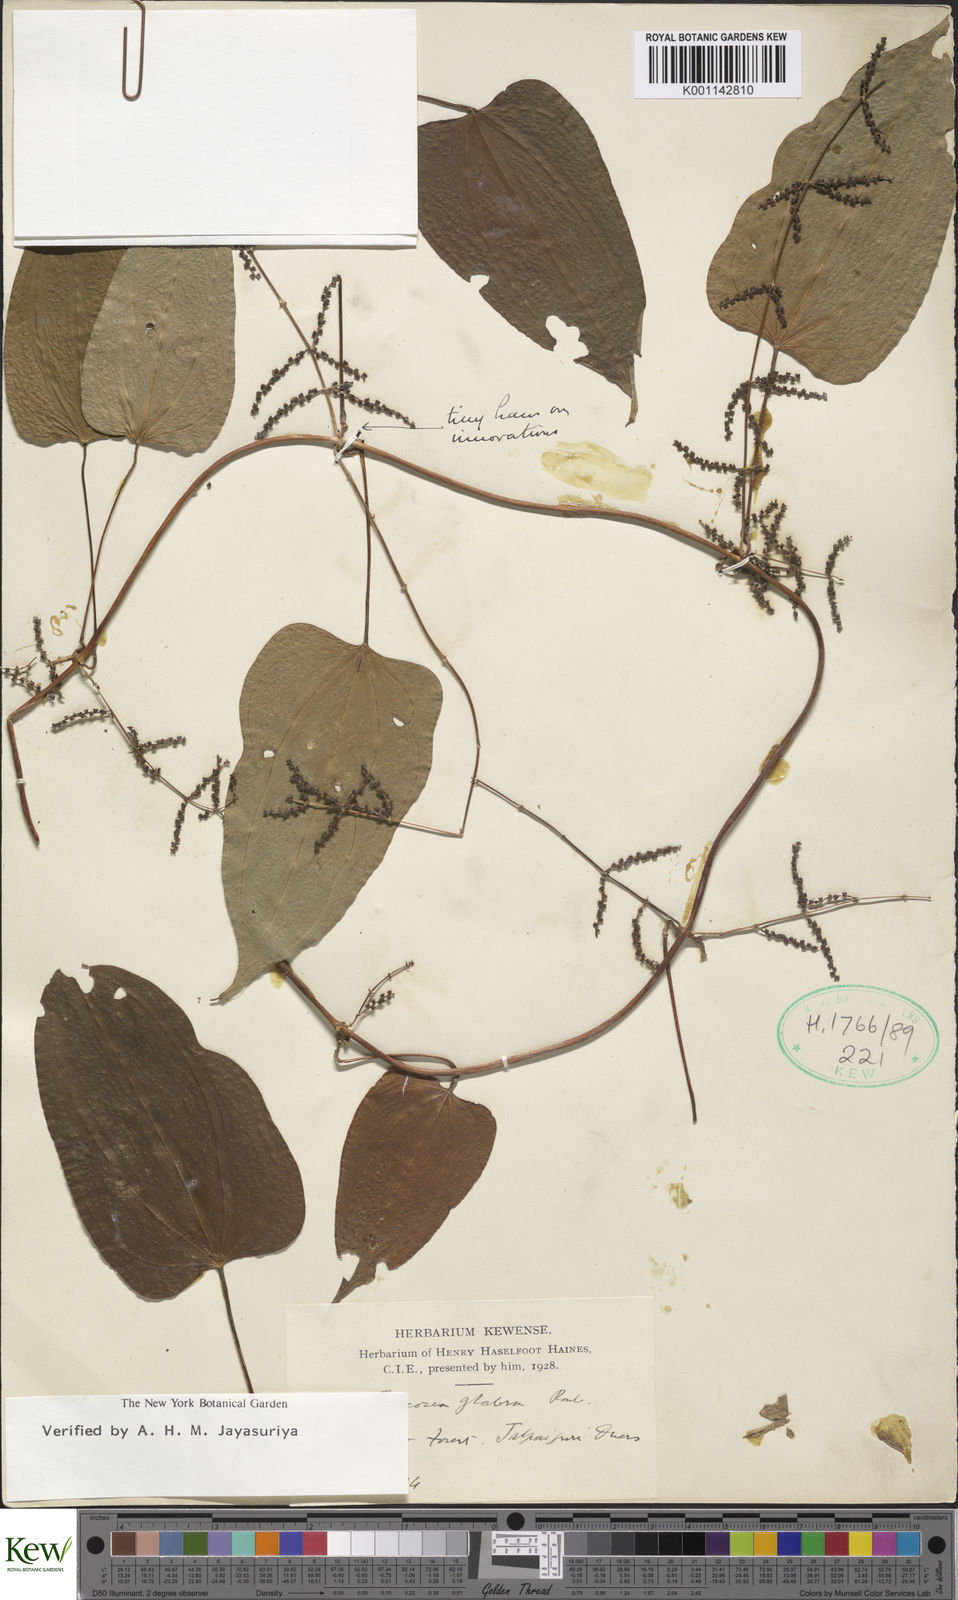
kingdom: Plantae
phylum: Tracheophyta
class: Liliopsida
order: Dioscoreales
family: Dioscoreaceae
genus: Dioscorea
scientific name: Dioscorea glabra
